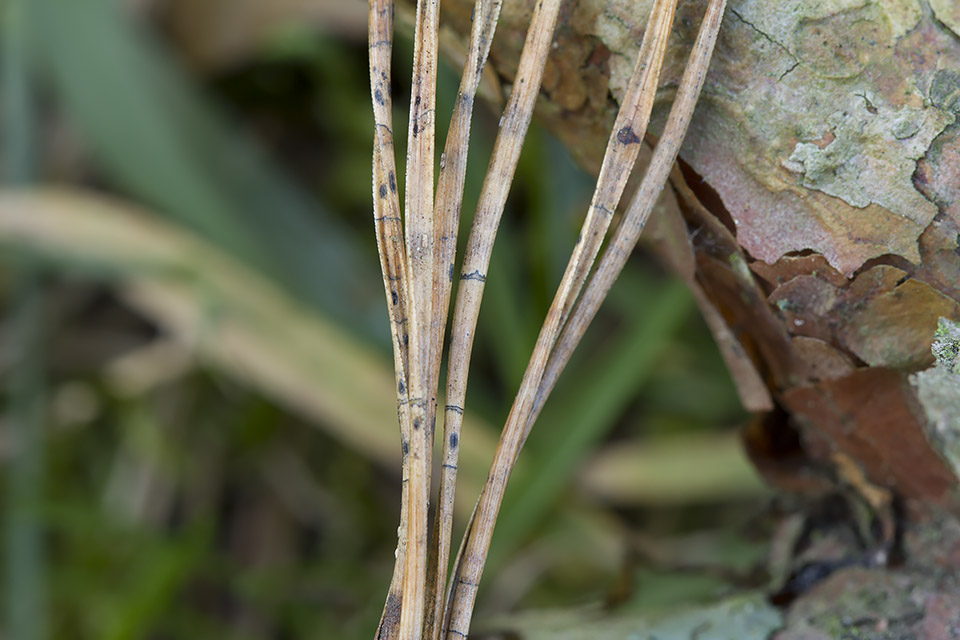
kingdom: Fungi
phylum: Ascomycota
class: Leotiomycetes
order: Rhytismatales
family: Rhytismataceae
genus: Lophodermium
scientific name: Lophodermium pinastri
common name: fyrre-fureplet
